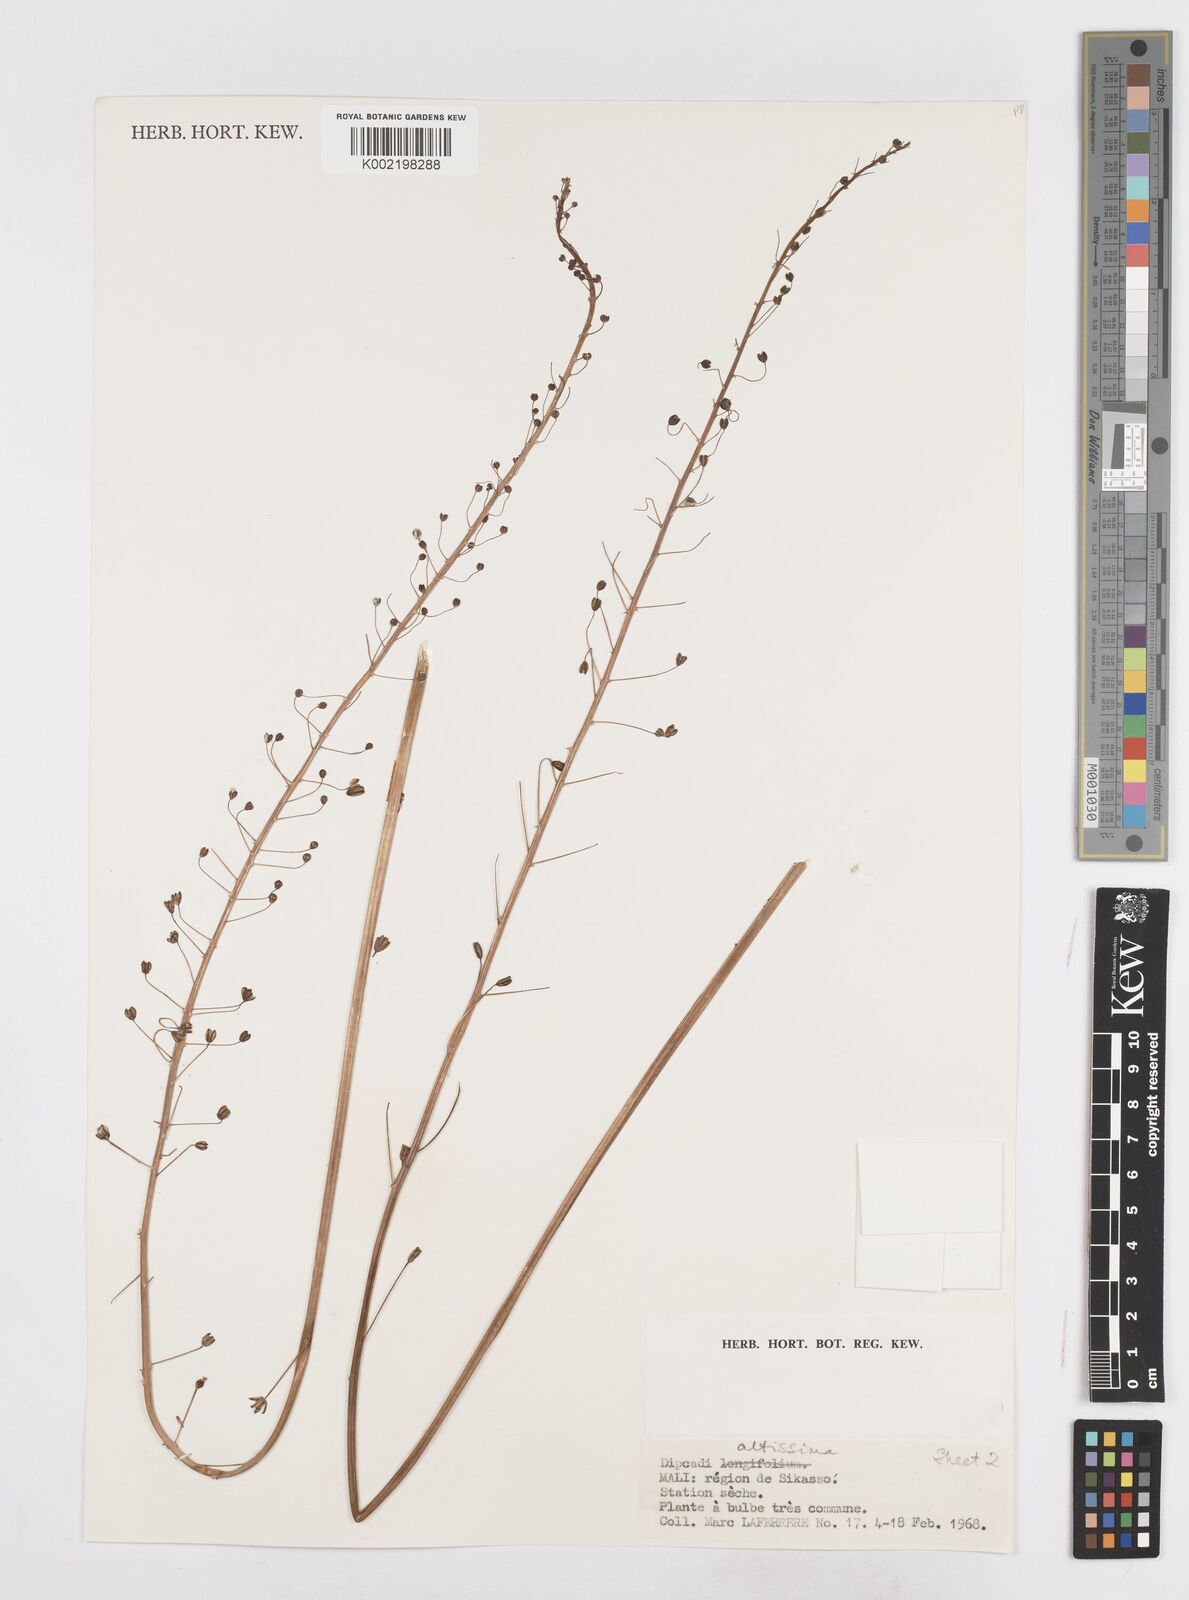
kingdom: Plantae
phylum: Tracheophyta
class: Liliopsida
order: Asparagales
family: Asparagaceae
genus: Drimia
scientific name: Drimia altissima
